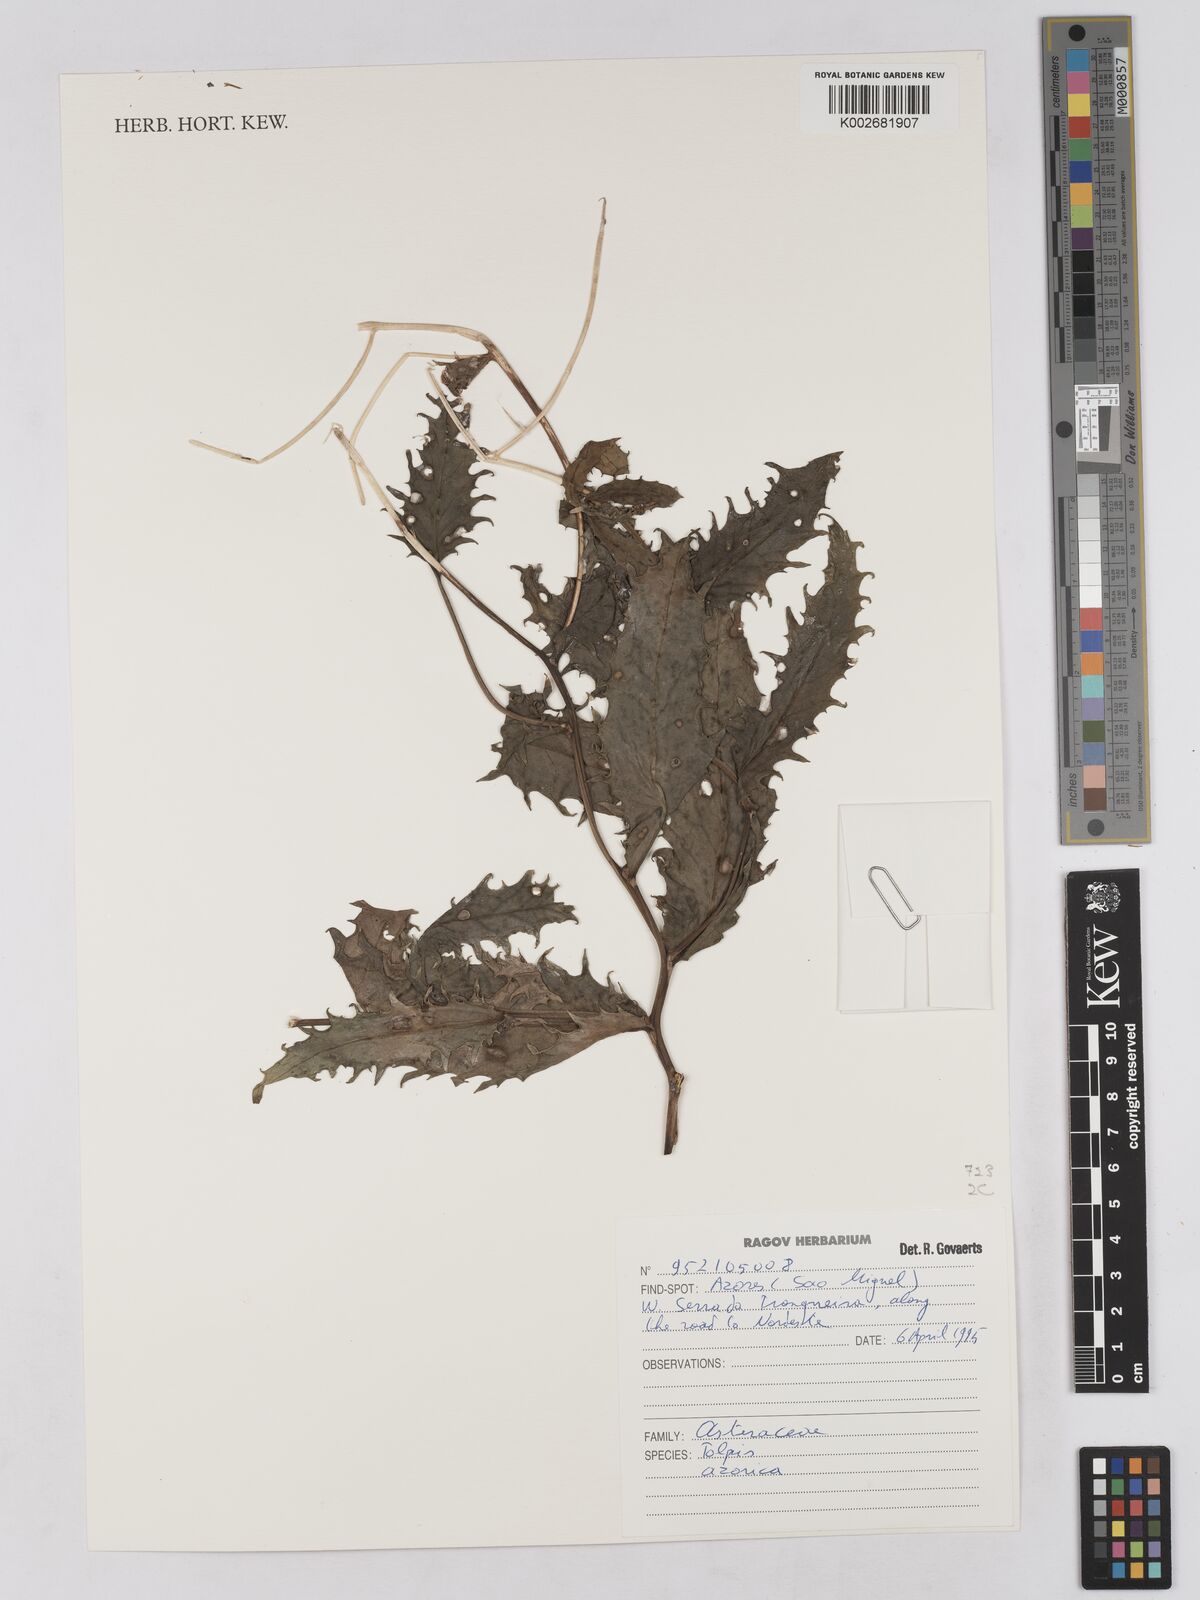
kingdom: Plantae
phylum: Tracheophyta
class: Magnoliopsida
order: Asterales
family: Asteraceae
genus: Tolpis
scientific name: Tolpis azorica
